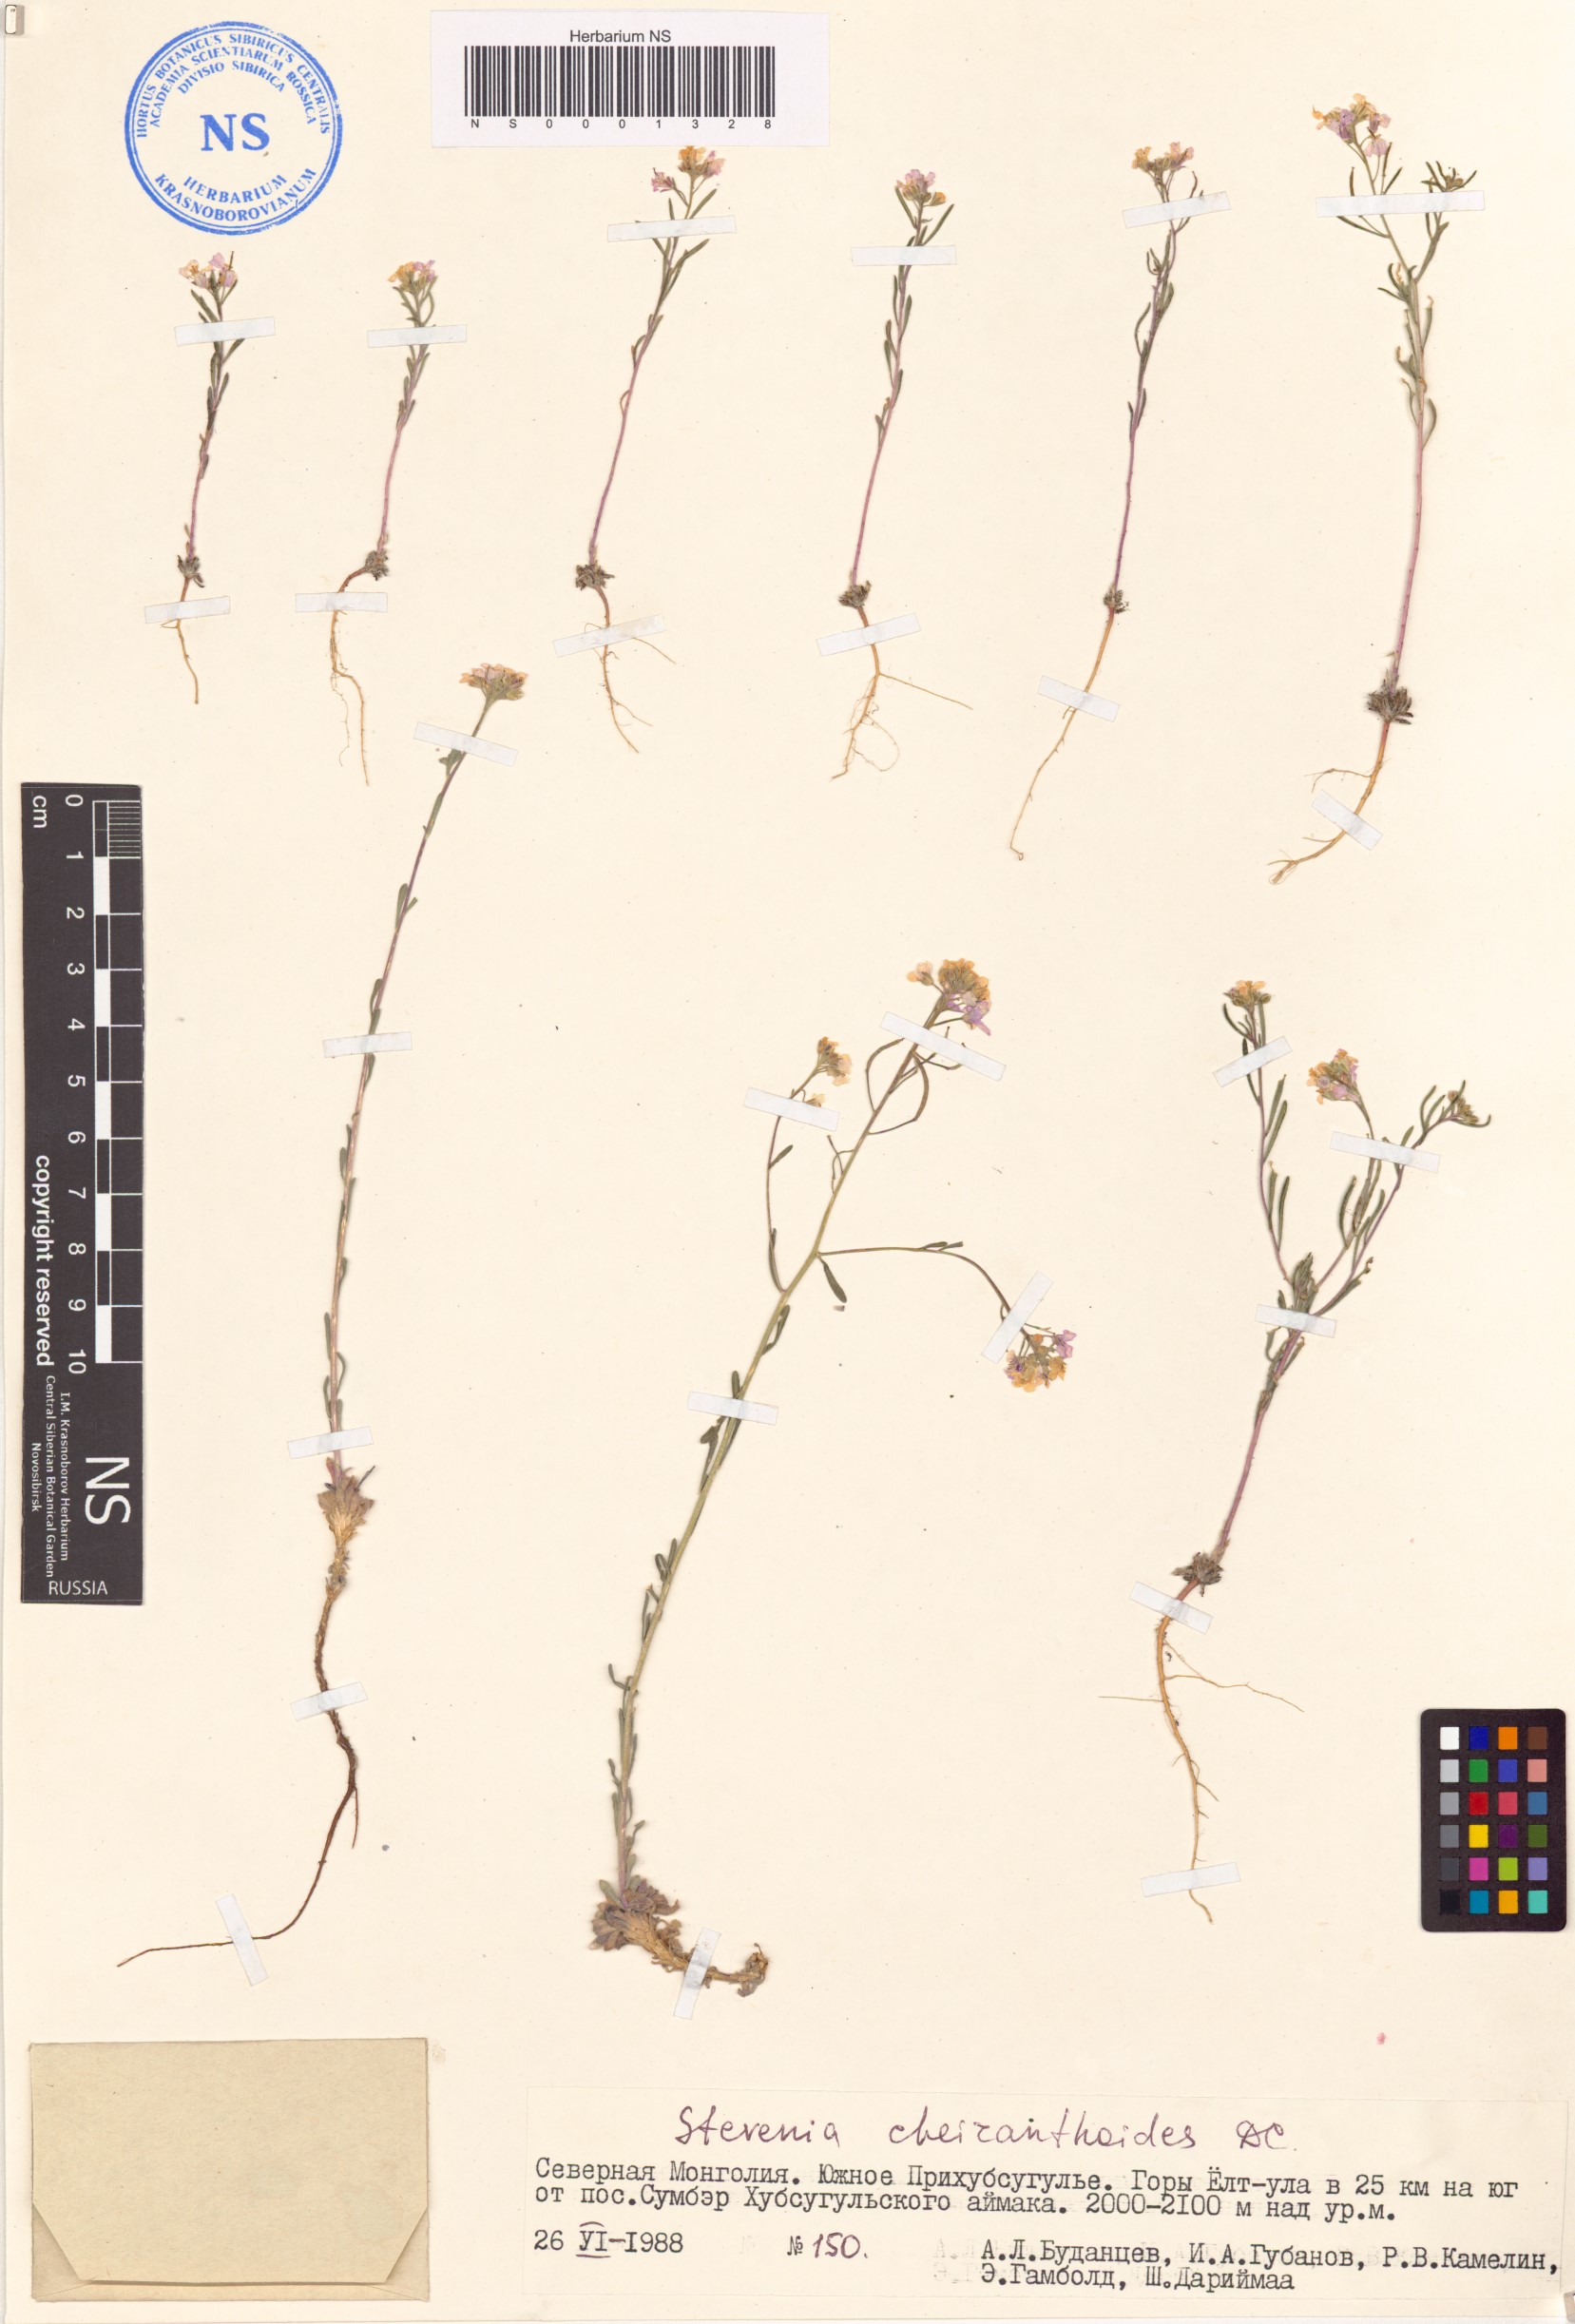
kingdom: Plantae
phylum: Tracheophyta
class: Magnoliopsida
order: Brassicales
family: Brassicaceae
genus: Stevenia
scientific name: Stevenia cheiranthoides
